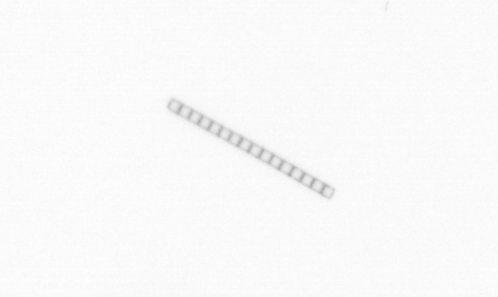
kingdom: Chromista
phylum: Ochrophyta
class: Bacillariophyceae
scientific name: Bacillariophyceae
